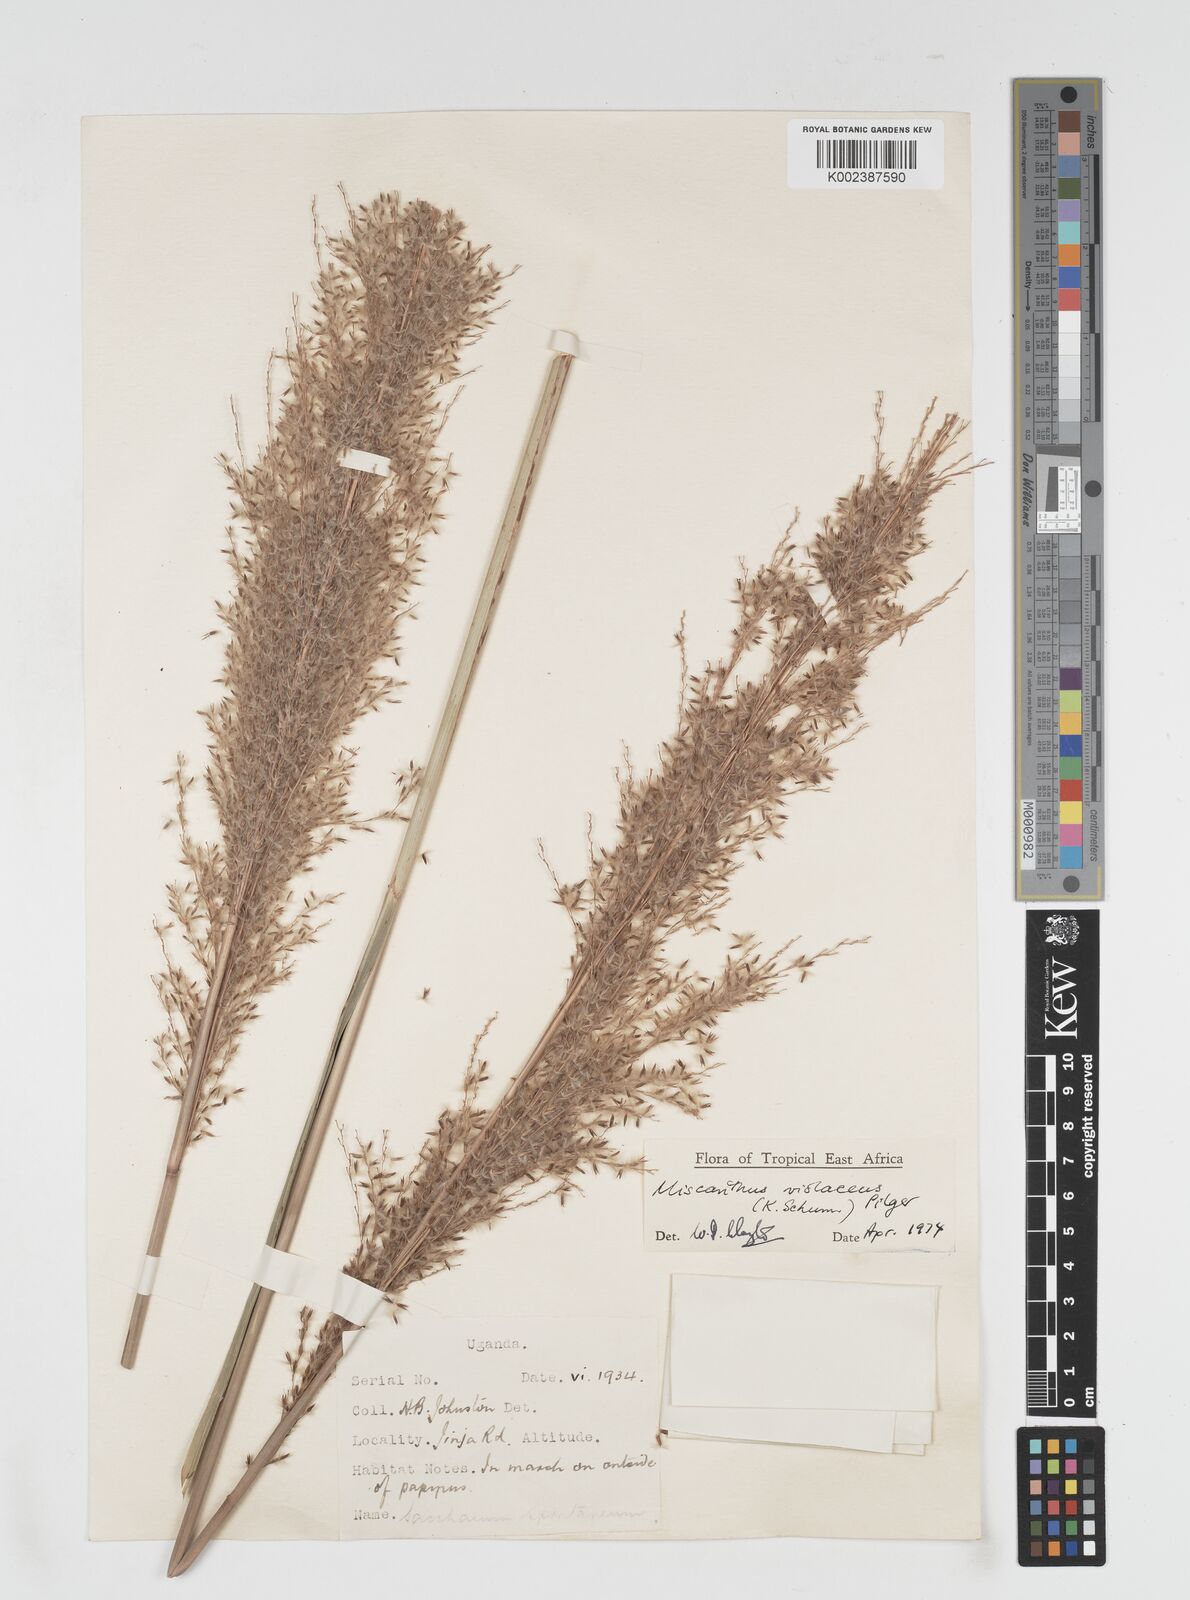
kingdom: Plantae
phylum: Tracheophyta
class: Liliopsida
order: Poales
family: Poaceae
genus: Miscanthidium
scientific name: Miscanthidium violaceum
